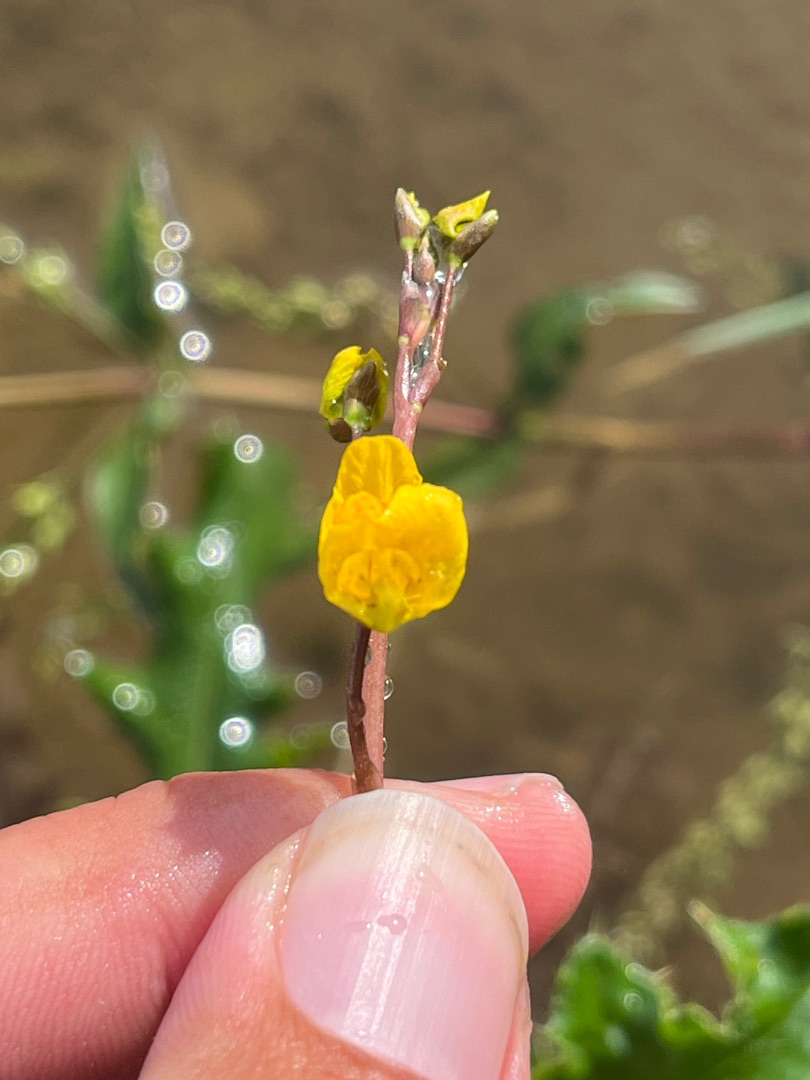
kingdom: Plantae
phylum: Tracheophyta
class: Magnoliopsida
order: Lamiales
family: Lentibulariaceae
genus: Utricularia
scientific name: Utricularia
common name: Blærerodslægten
